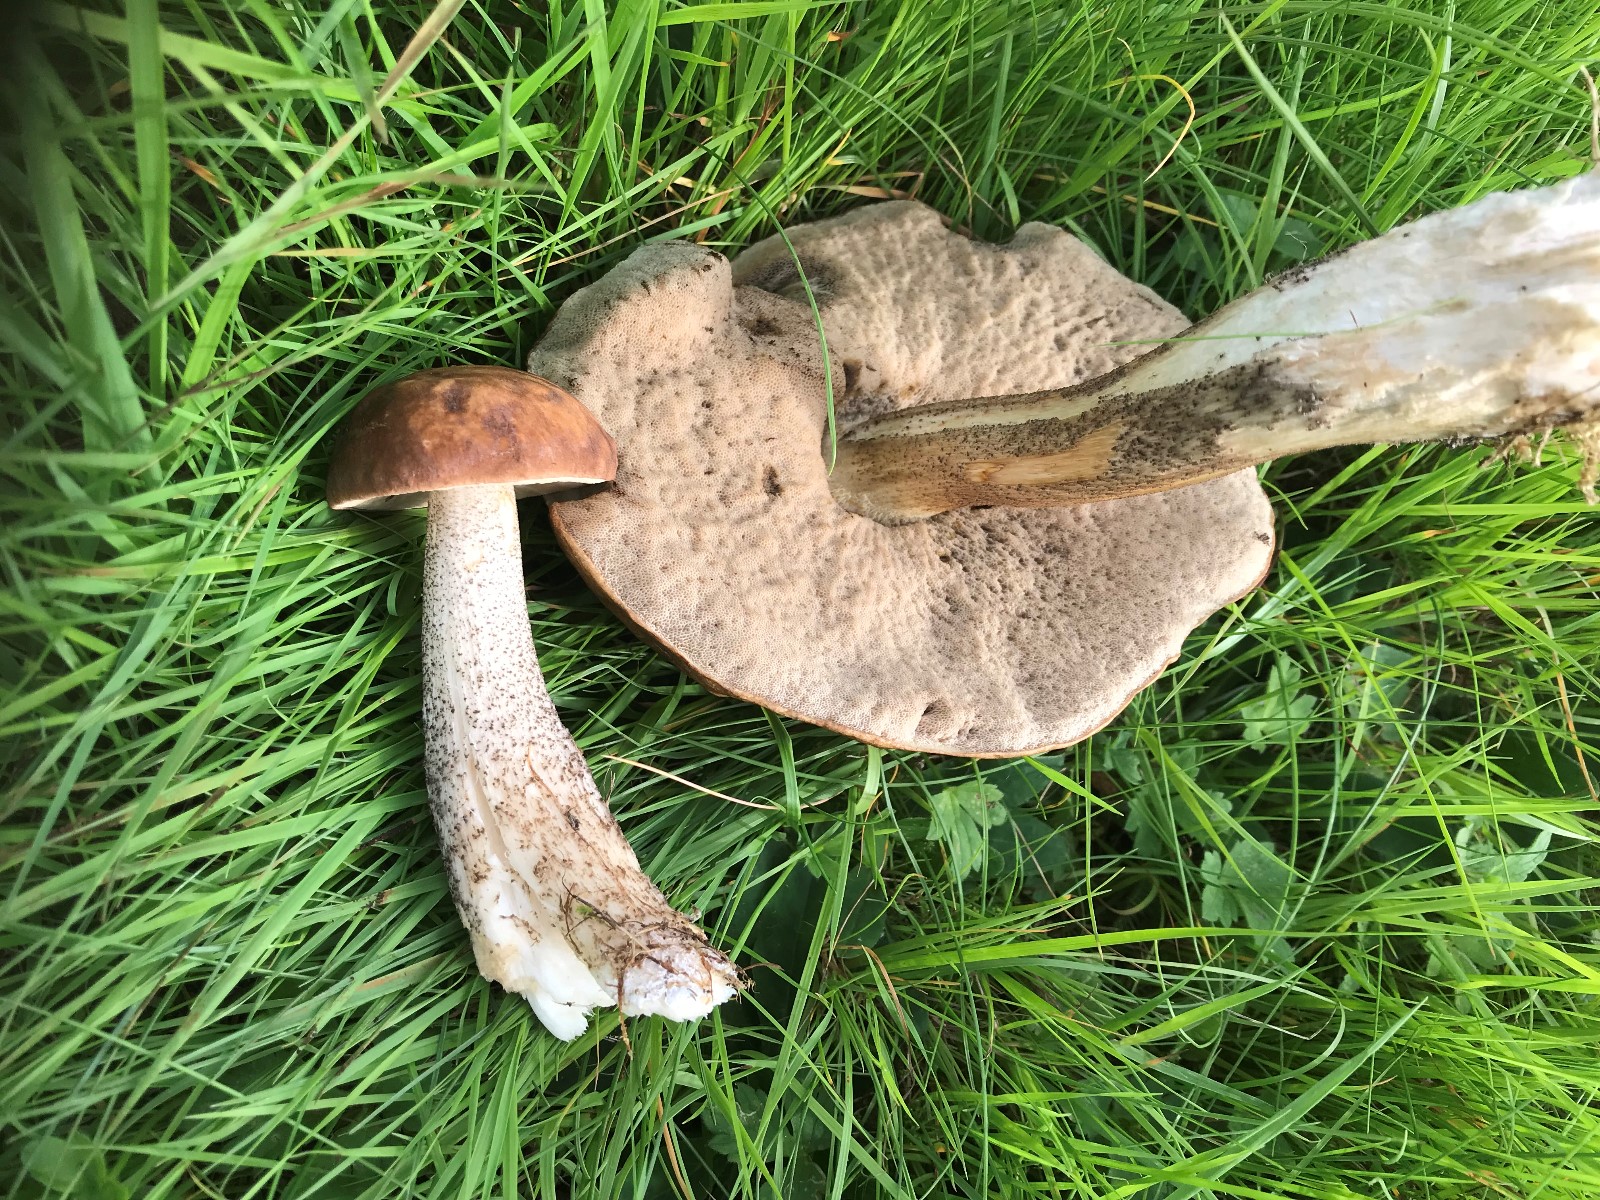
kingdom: Fungi
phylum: Basidiomycota
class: Agaricomycetes
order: Boletales
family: Boletaceae
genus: Leccinum
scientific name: Leccinum scabrum
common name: brun skælrørhat
